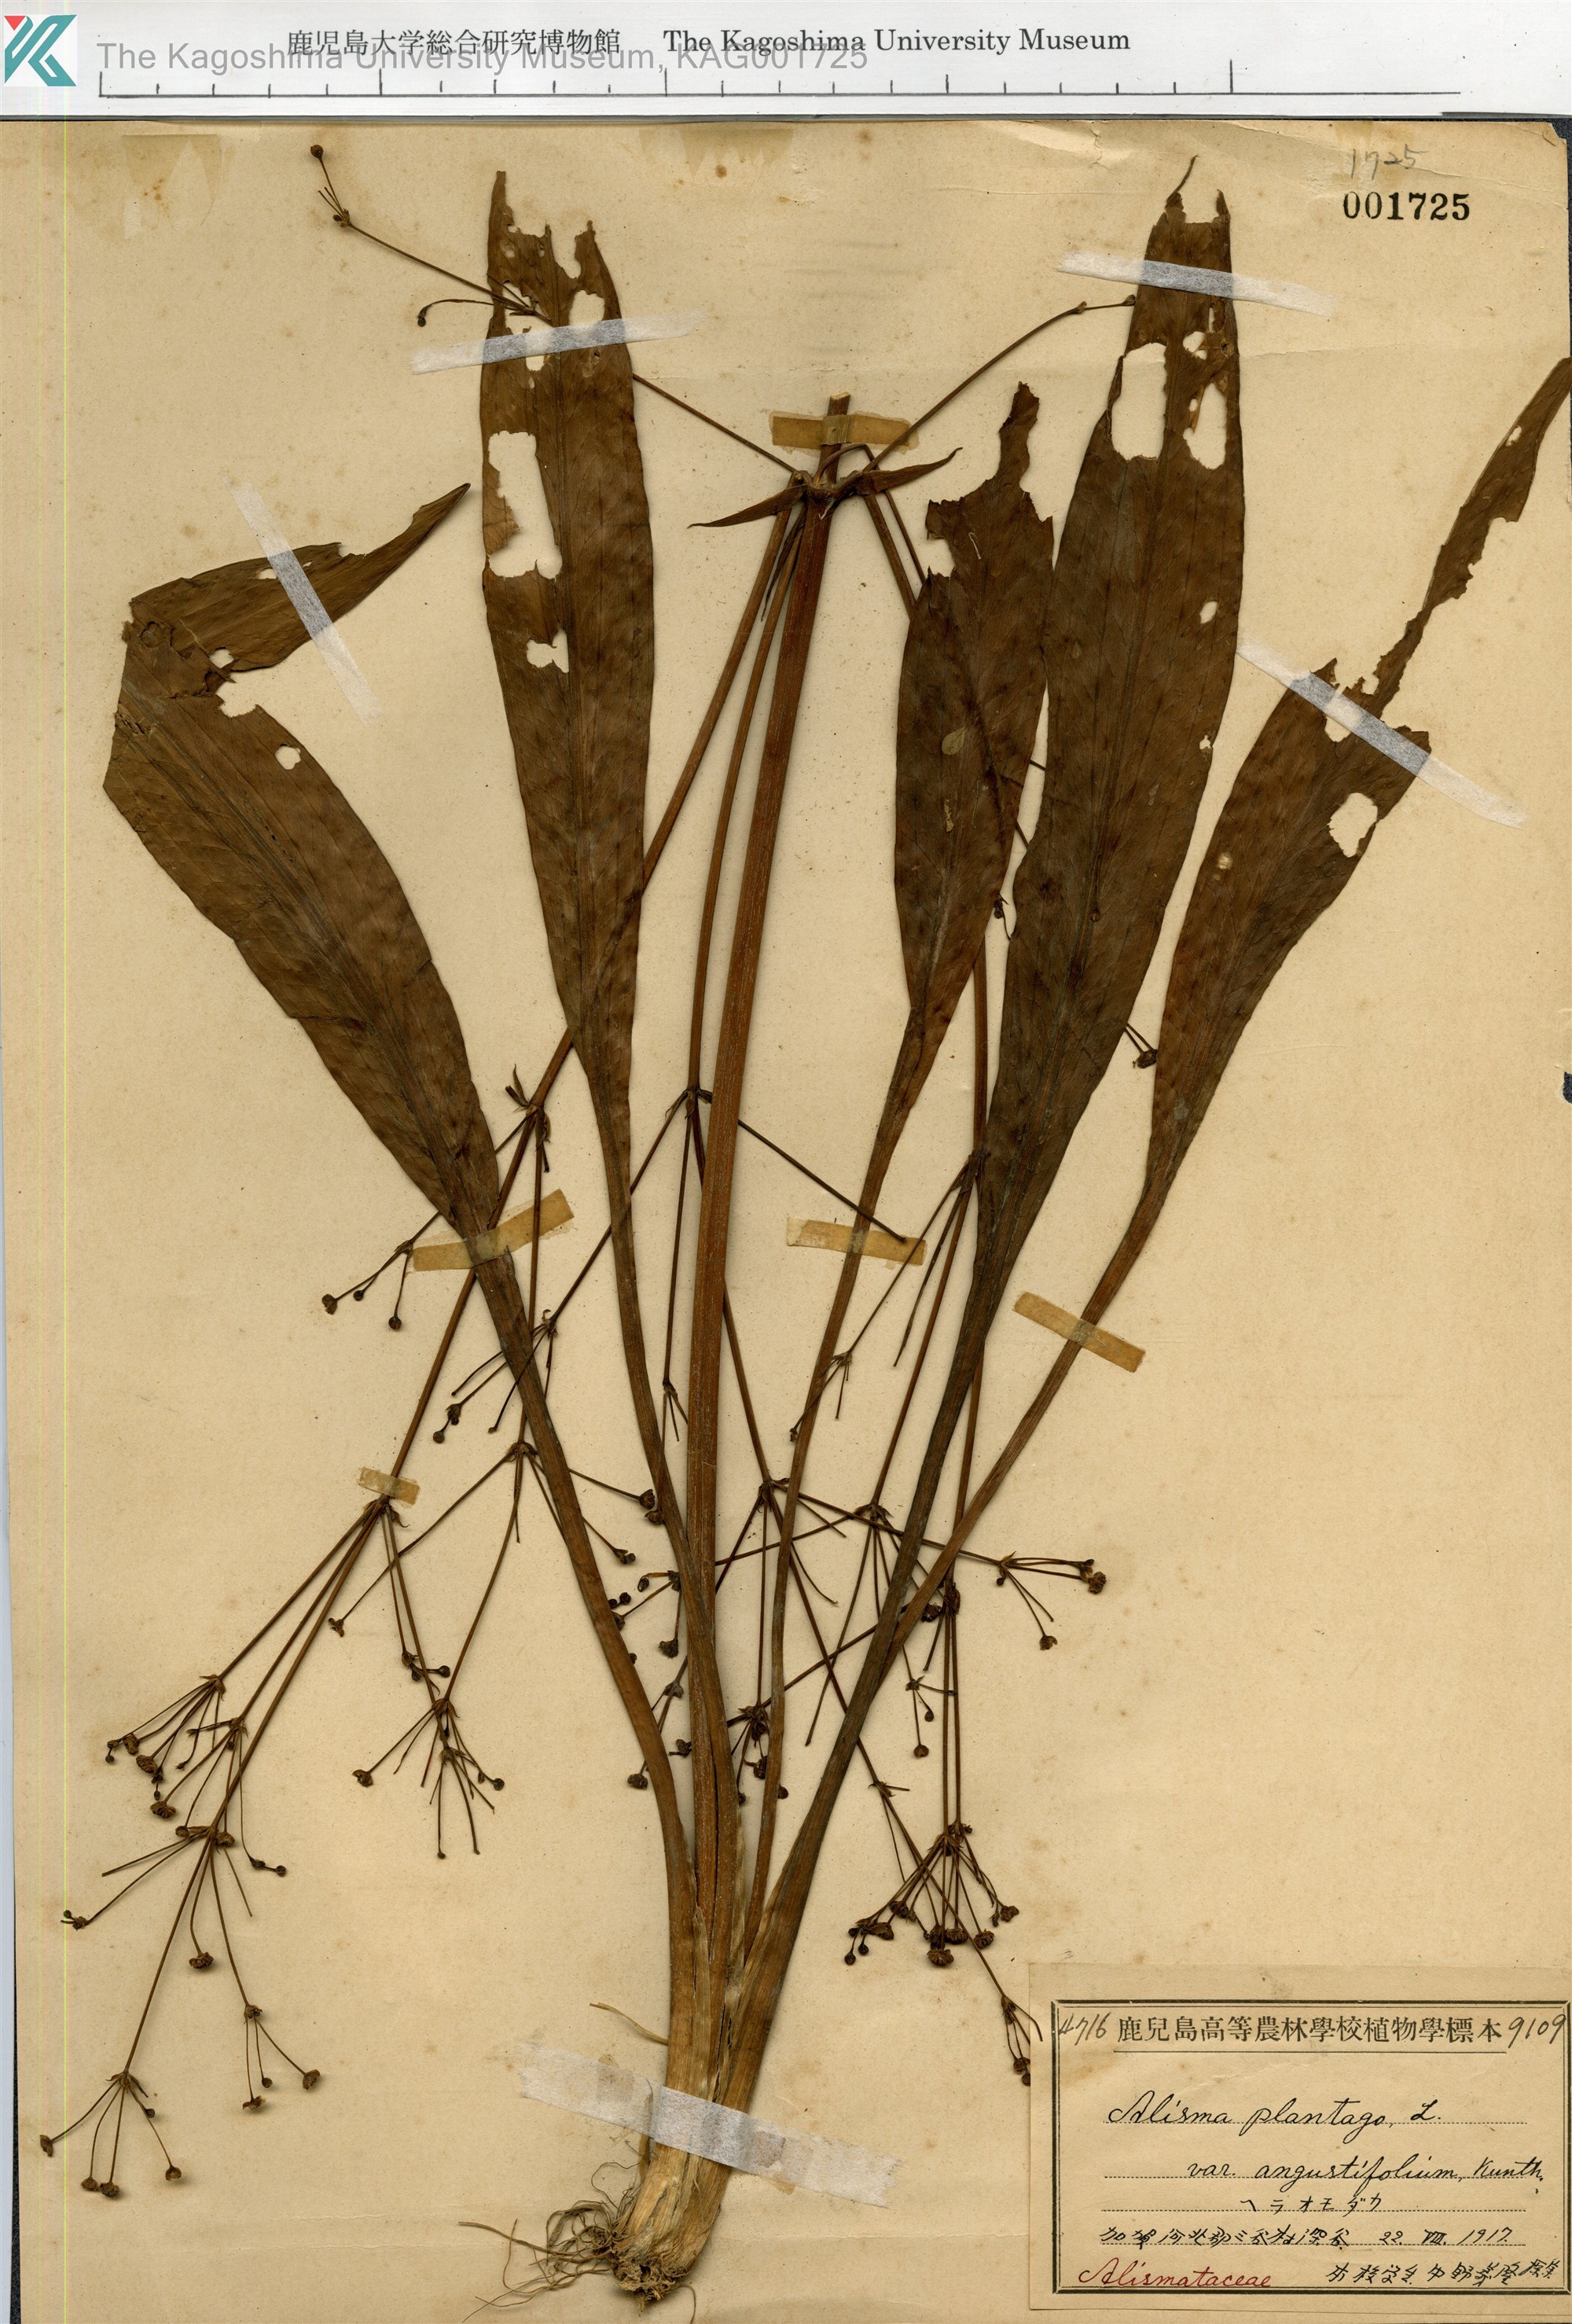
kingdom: Plantae
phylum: Tracheophyta
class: Liliopsida
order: Alismatales
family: Alismataceae
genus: Alisma
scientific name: Alisma canaliculatum
